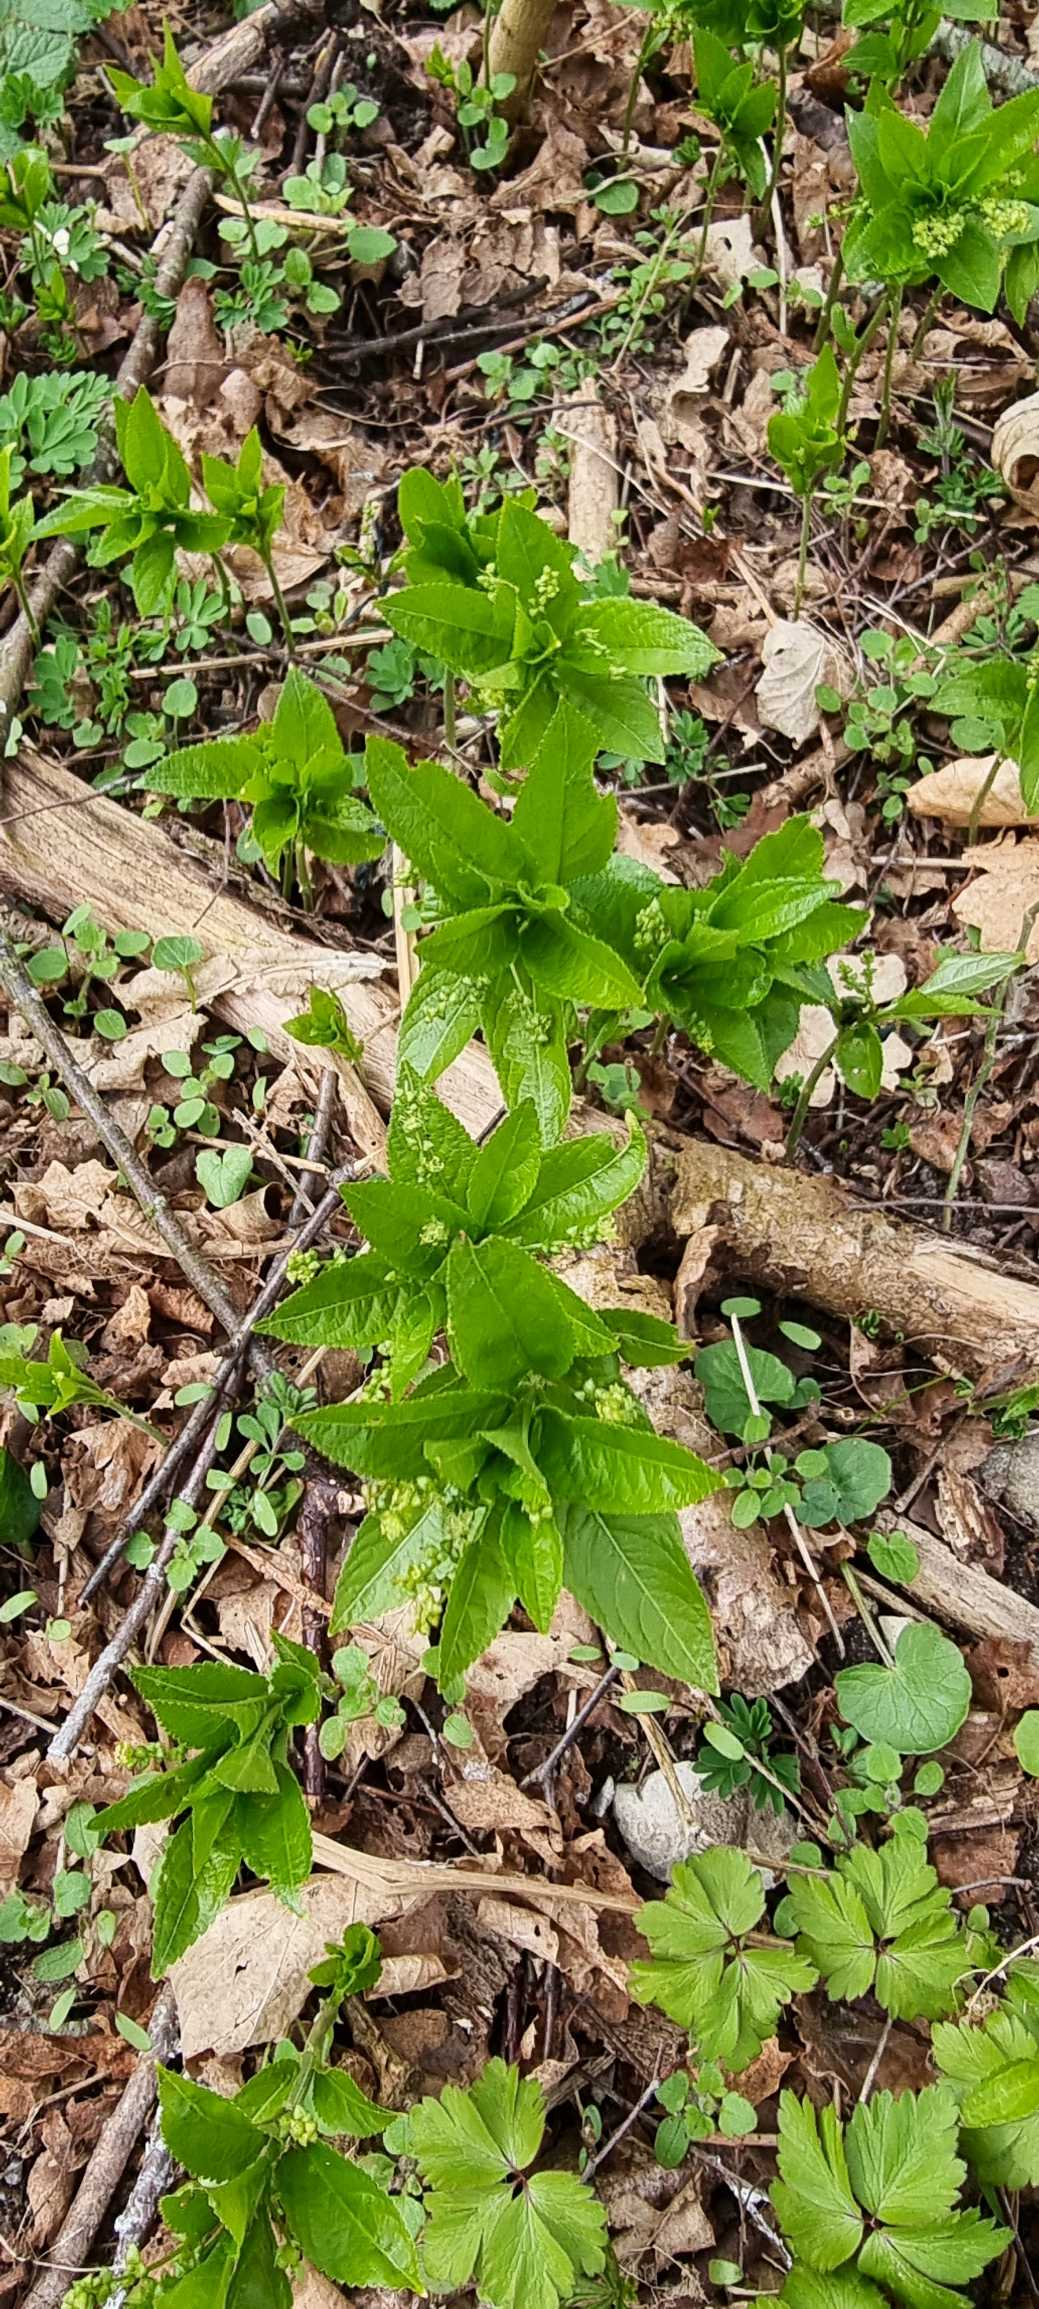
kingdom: Plantae
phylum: Tracheophyta
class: Magnoliopsida
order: Malpighiales
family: Euphorbiaceae
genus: Mercurialis
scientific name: Mercurialis perennis
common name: Almindelig bingelurt
